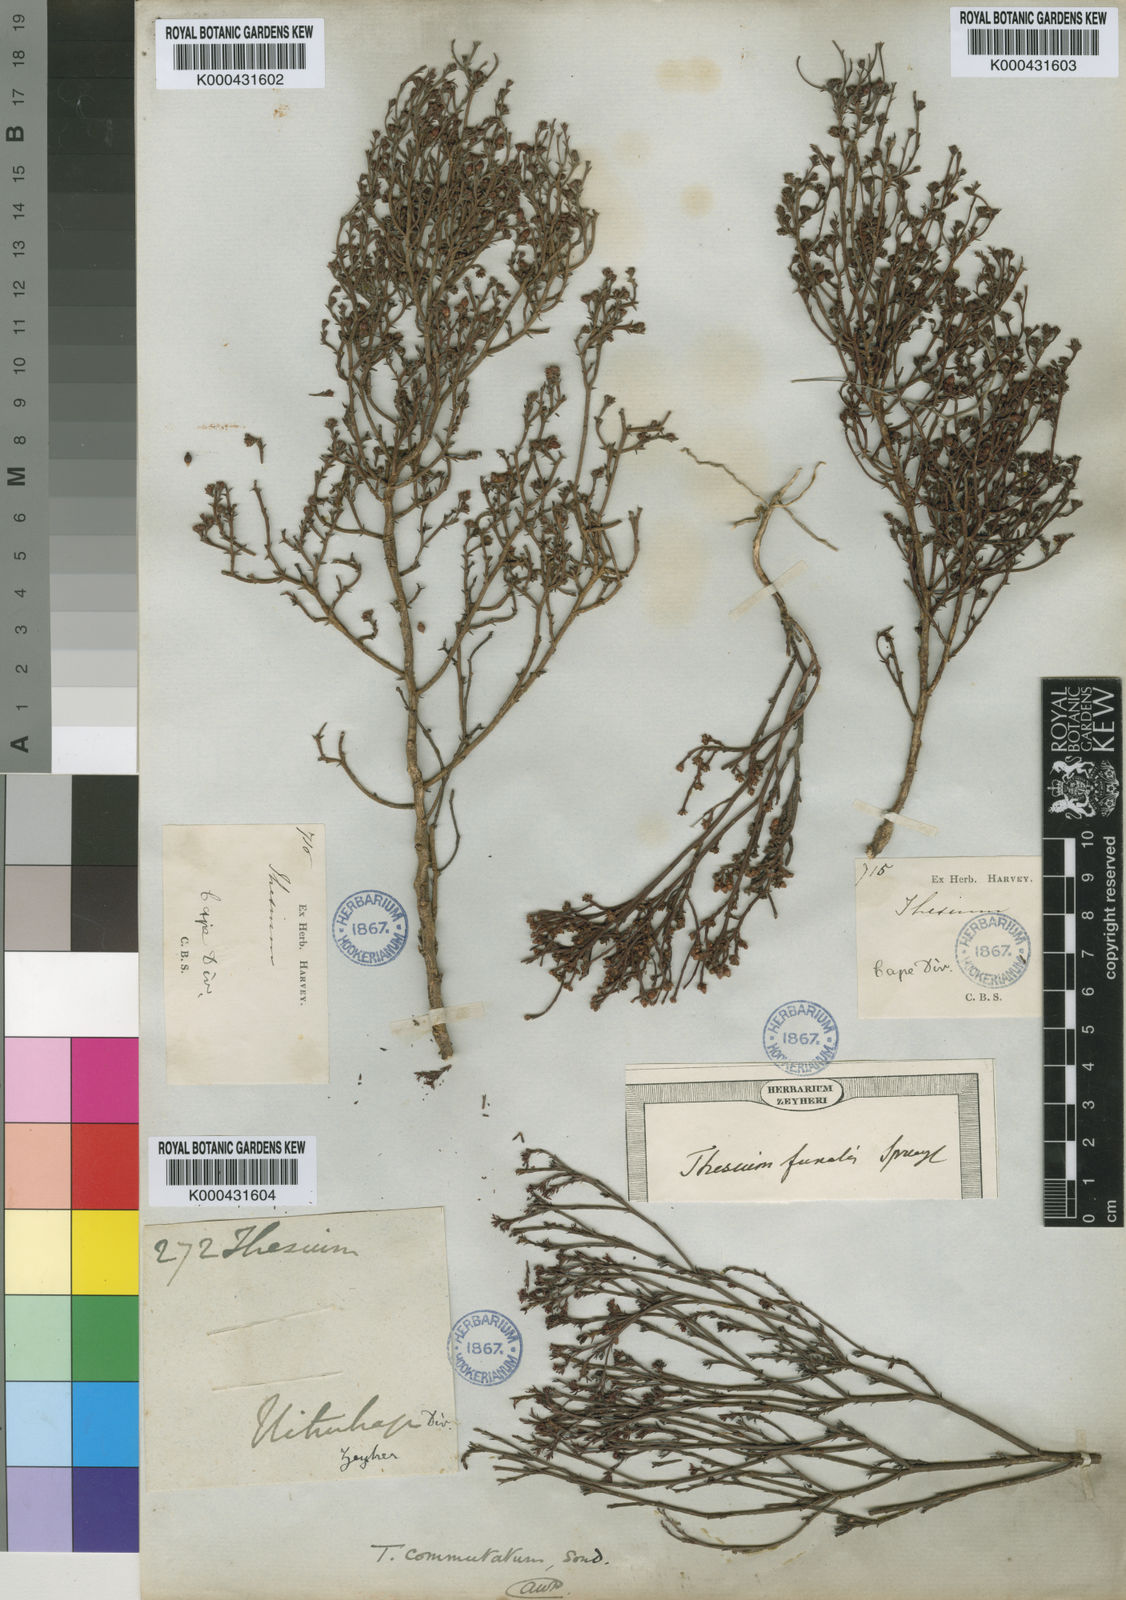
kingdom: Plantae
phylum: Tracheophyta
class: Magnoliopsida
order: Santalales
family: Thesiaceae
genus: Thesium
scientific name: Thesium commutatum
